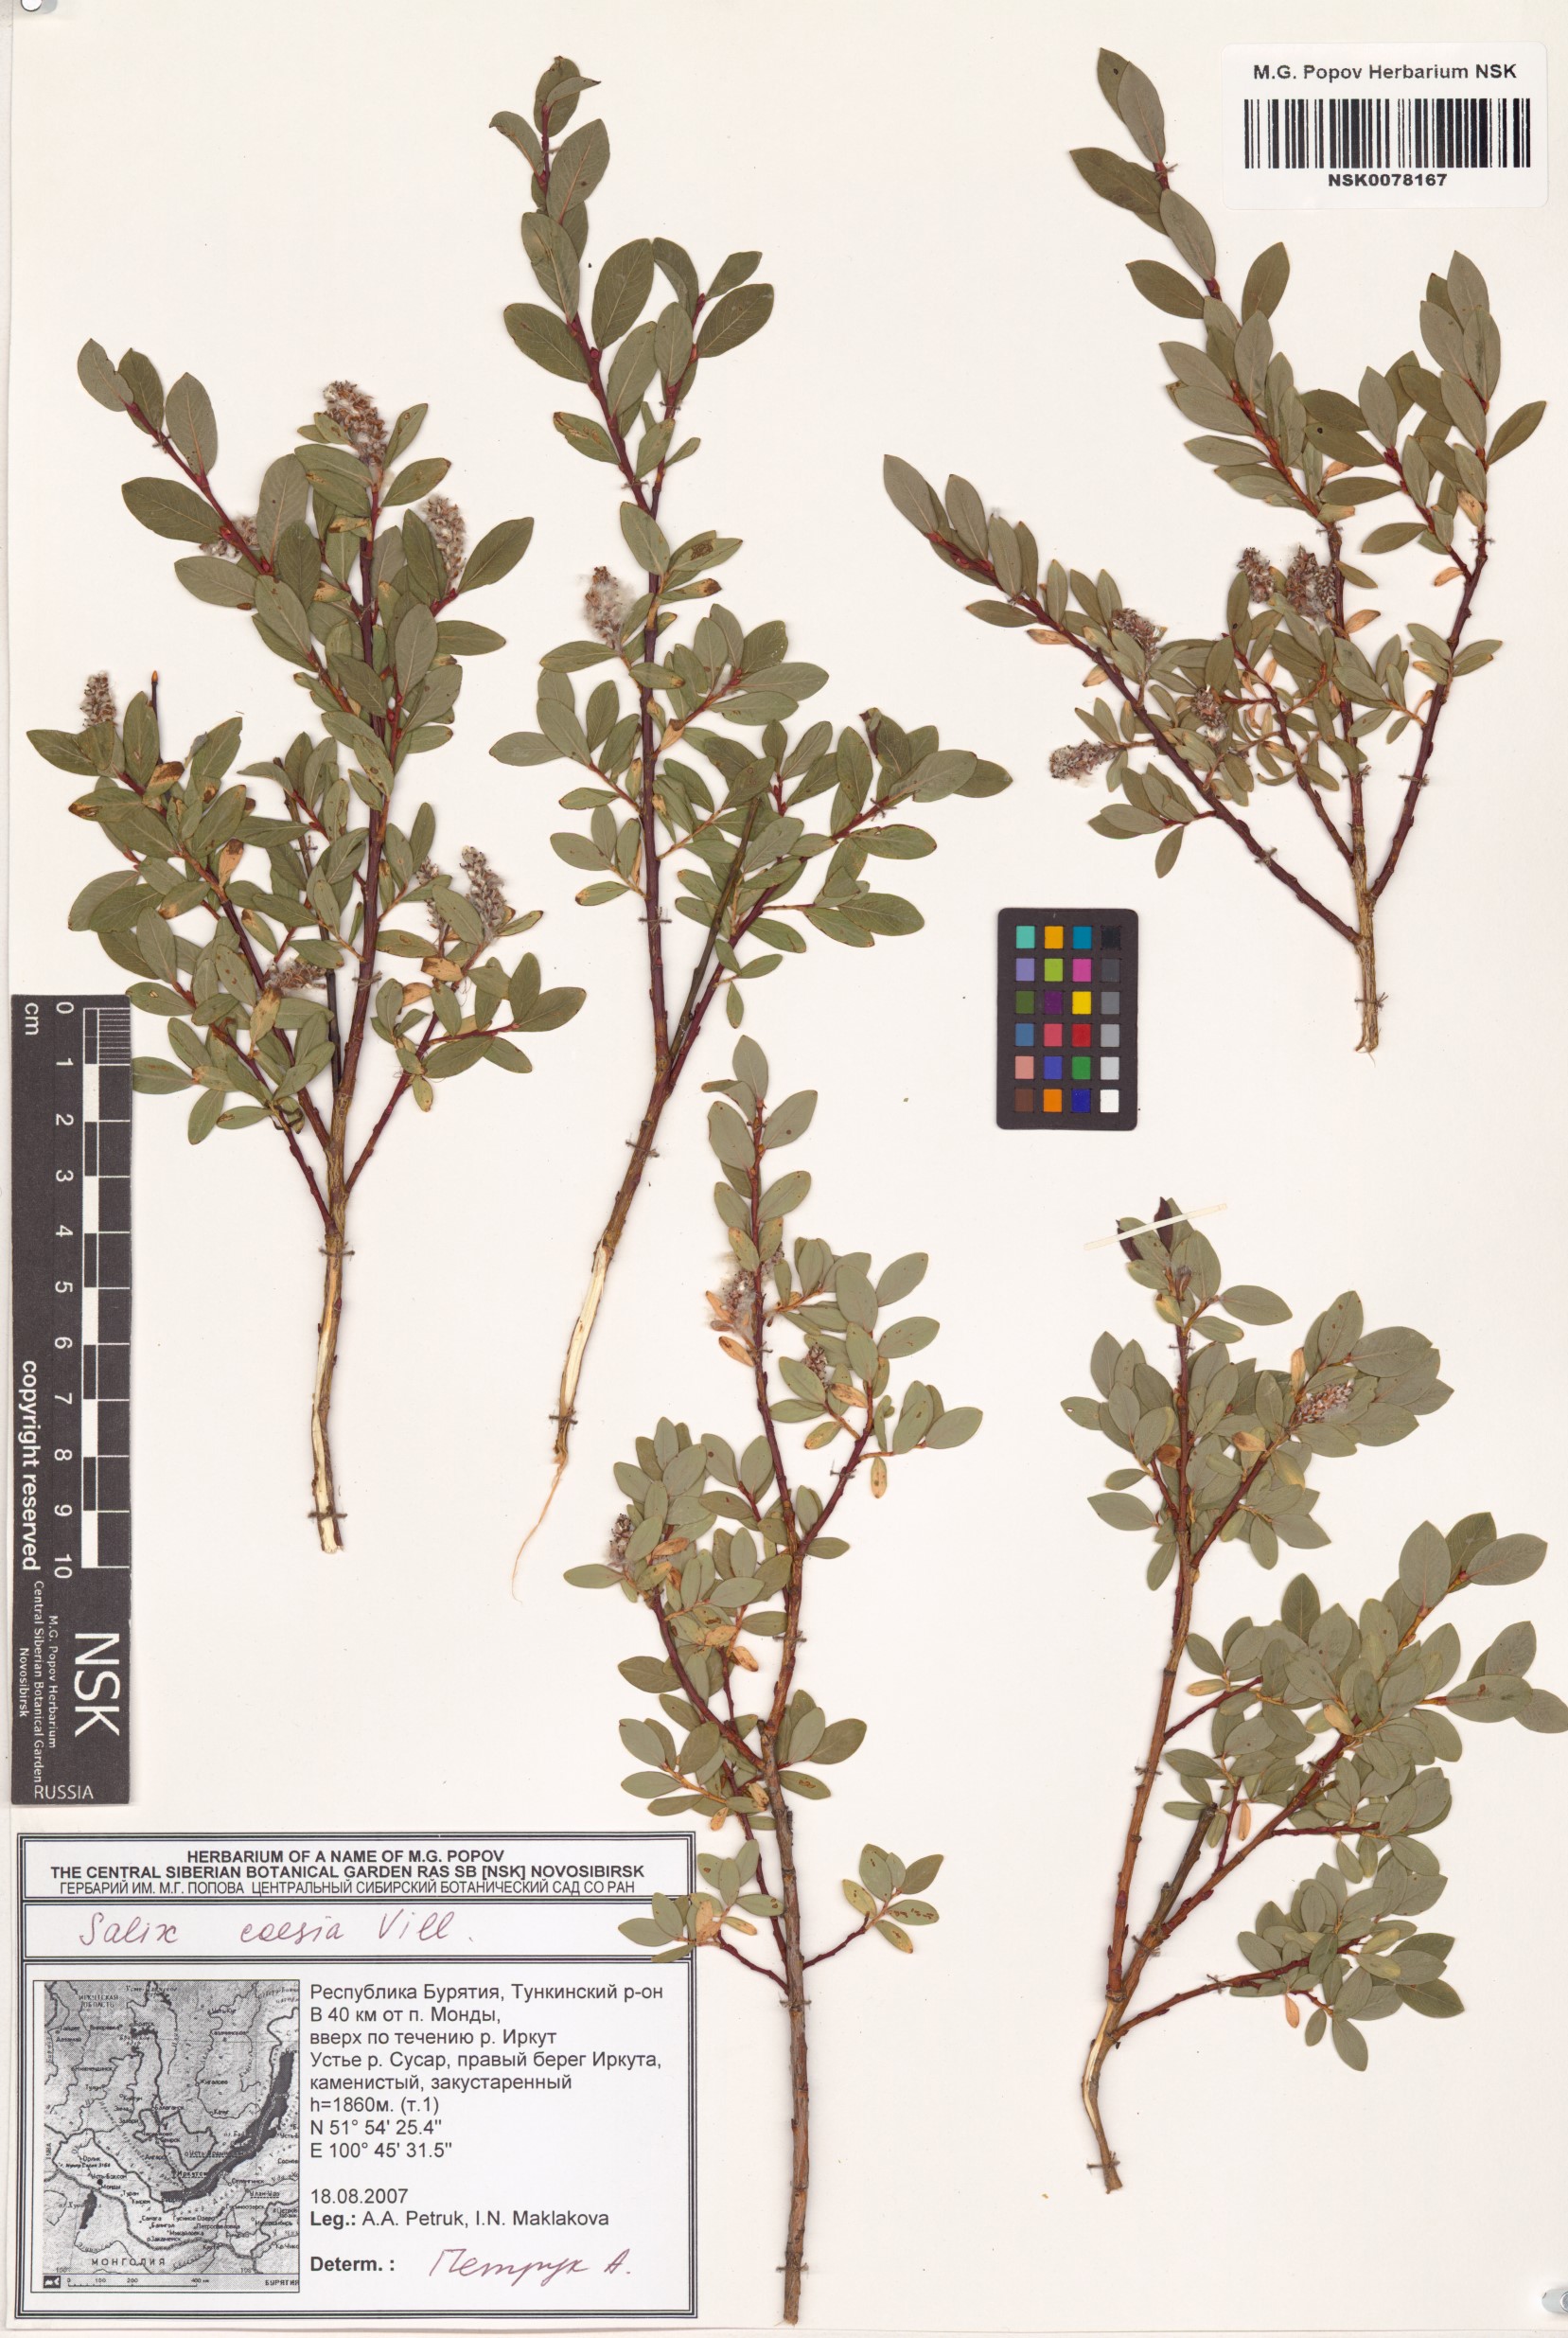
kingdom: Plantae
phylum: Tracheophyta
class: Magnoliopsida
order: Malpighiales
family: Salicaceae
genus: Salix
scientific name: Salix caesia
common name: Blue willow
